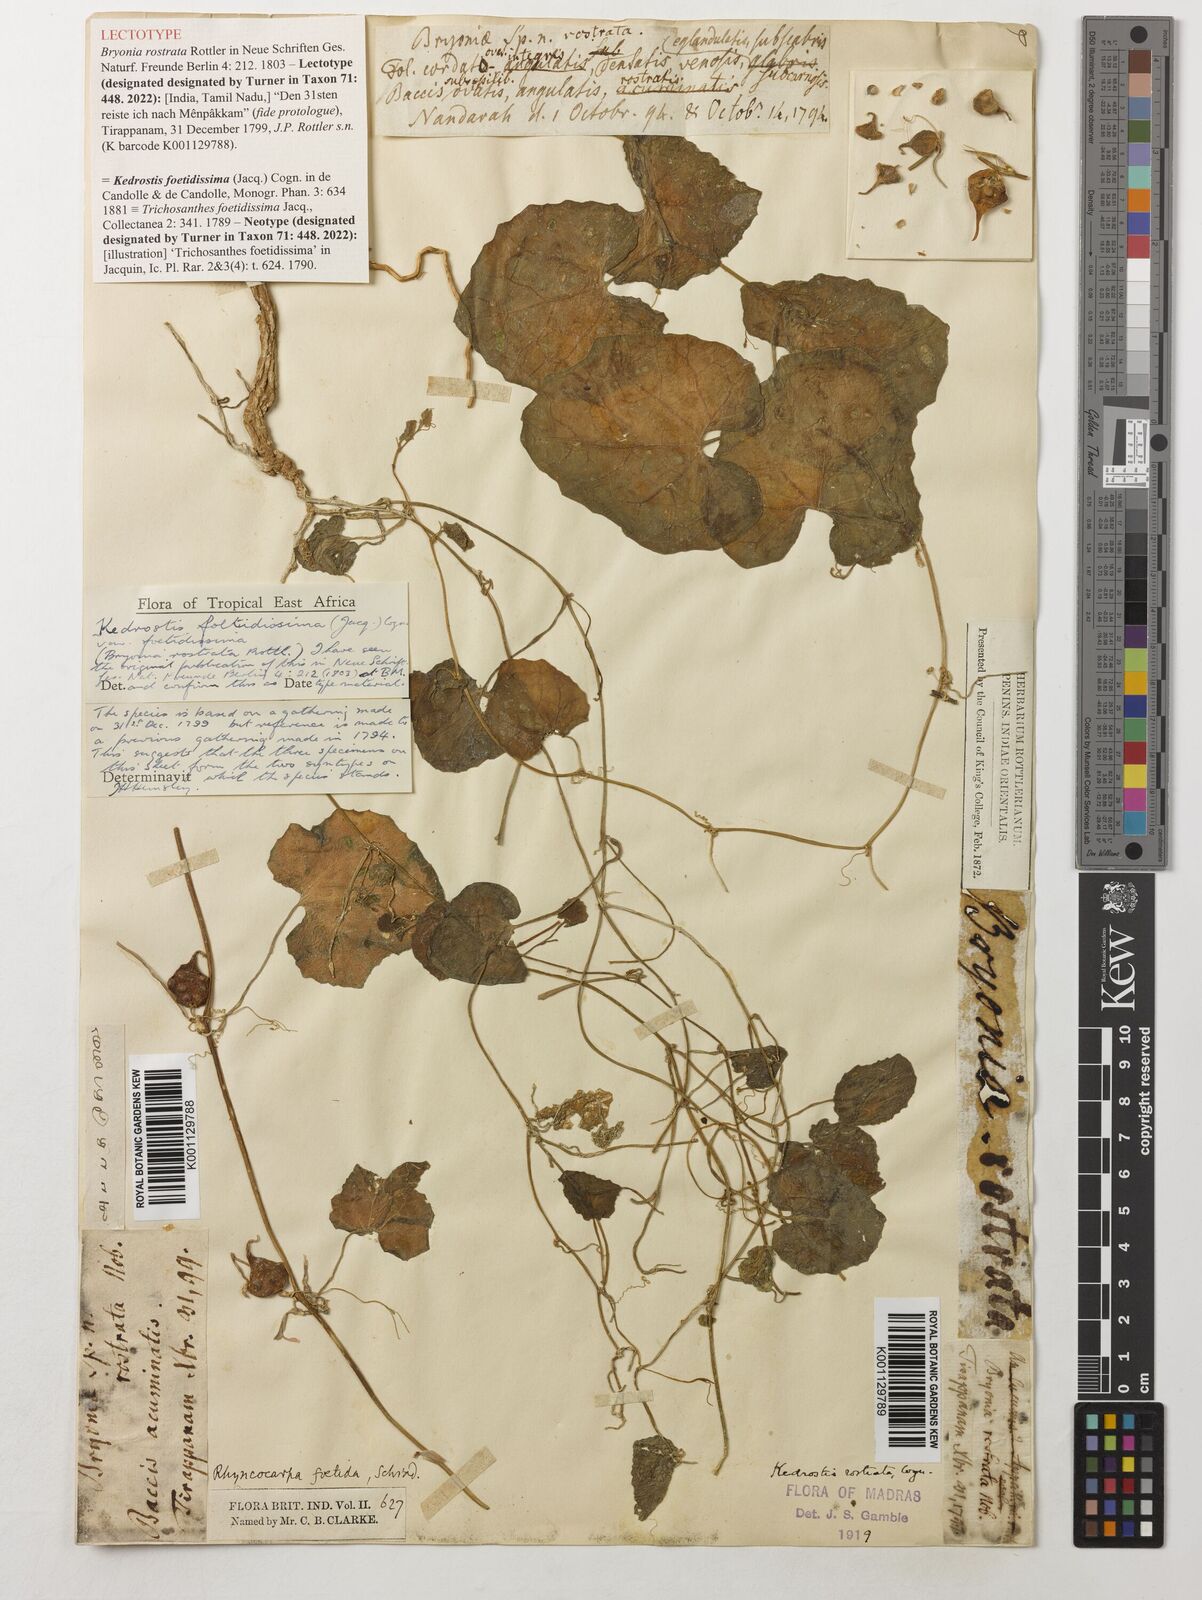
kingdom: Plantae
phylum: Tracheophyta
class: Magnoliopsida
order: Cucurbitales
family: Cucurbitaceae
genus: Kedrostis
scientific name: Kedrostis foetidissima
